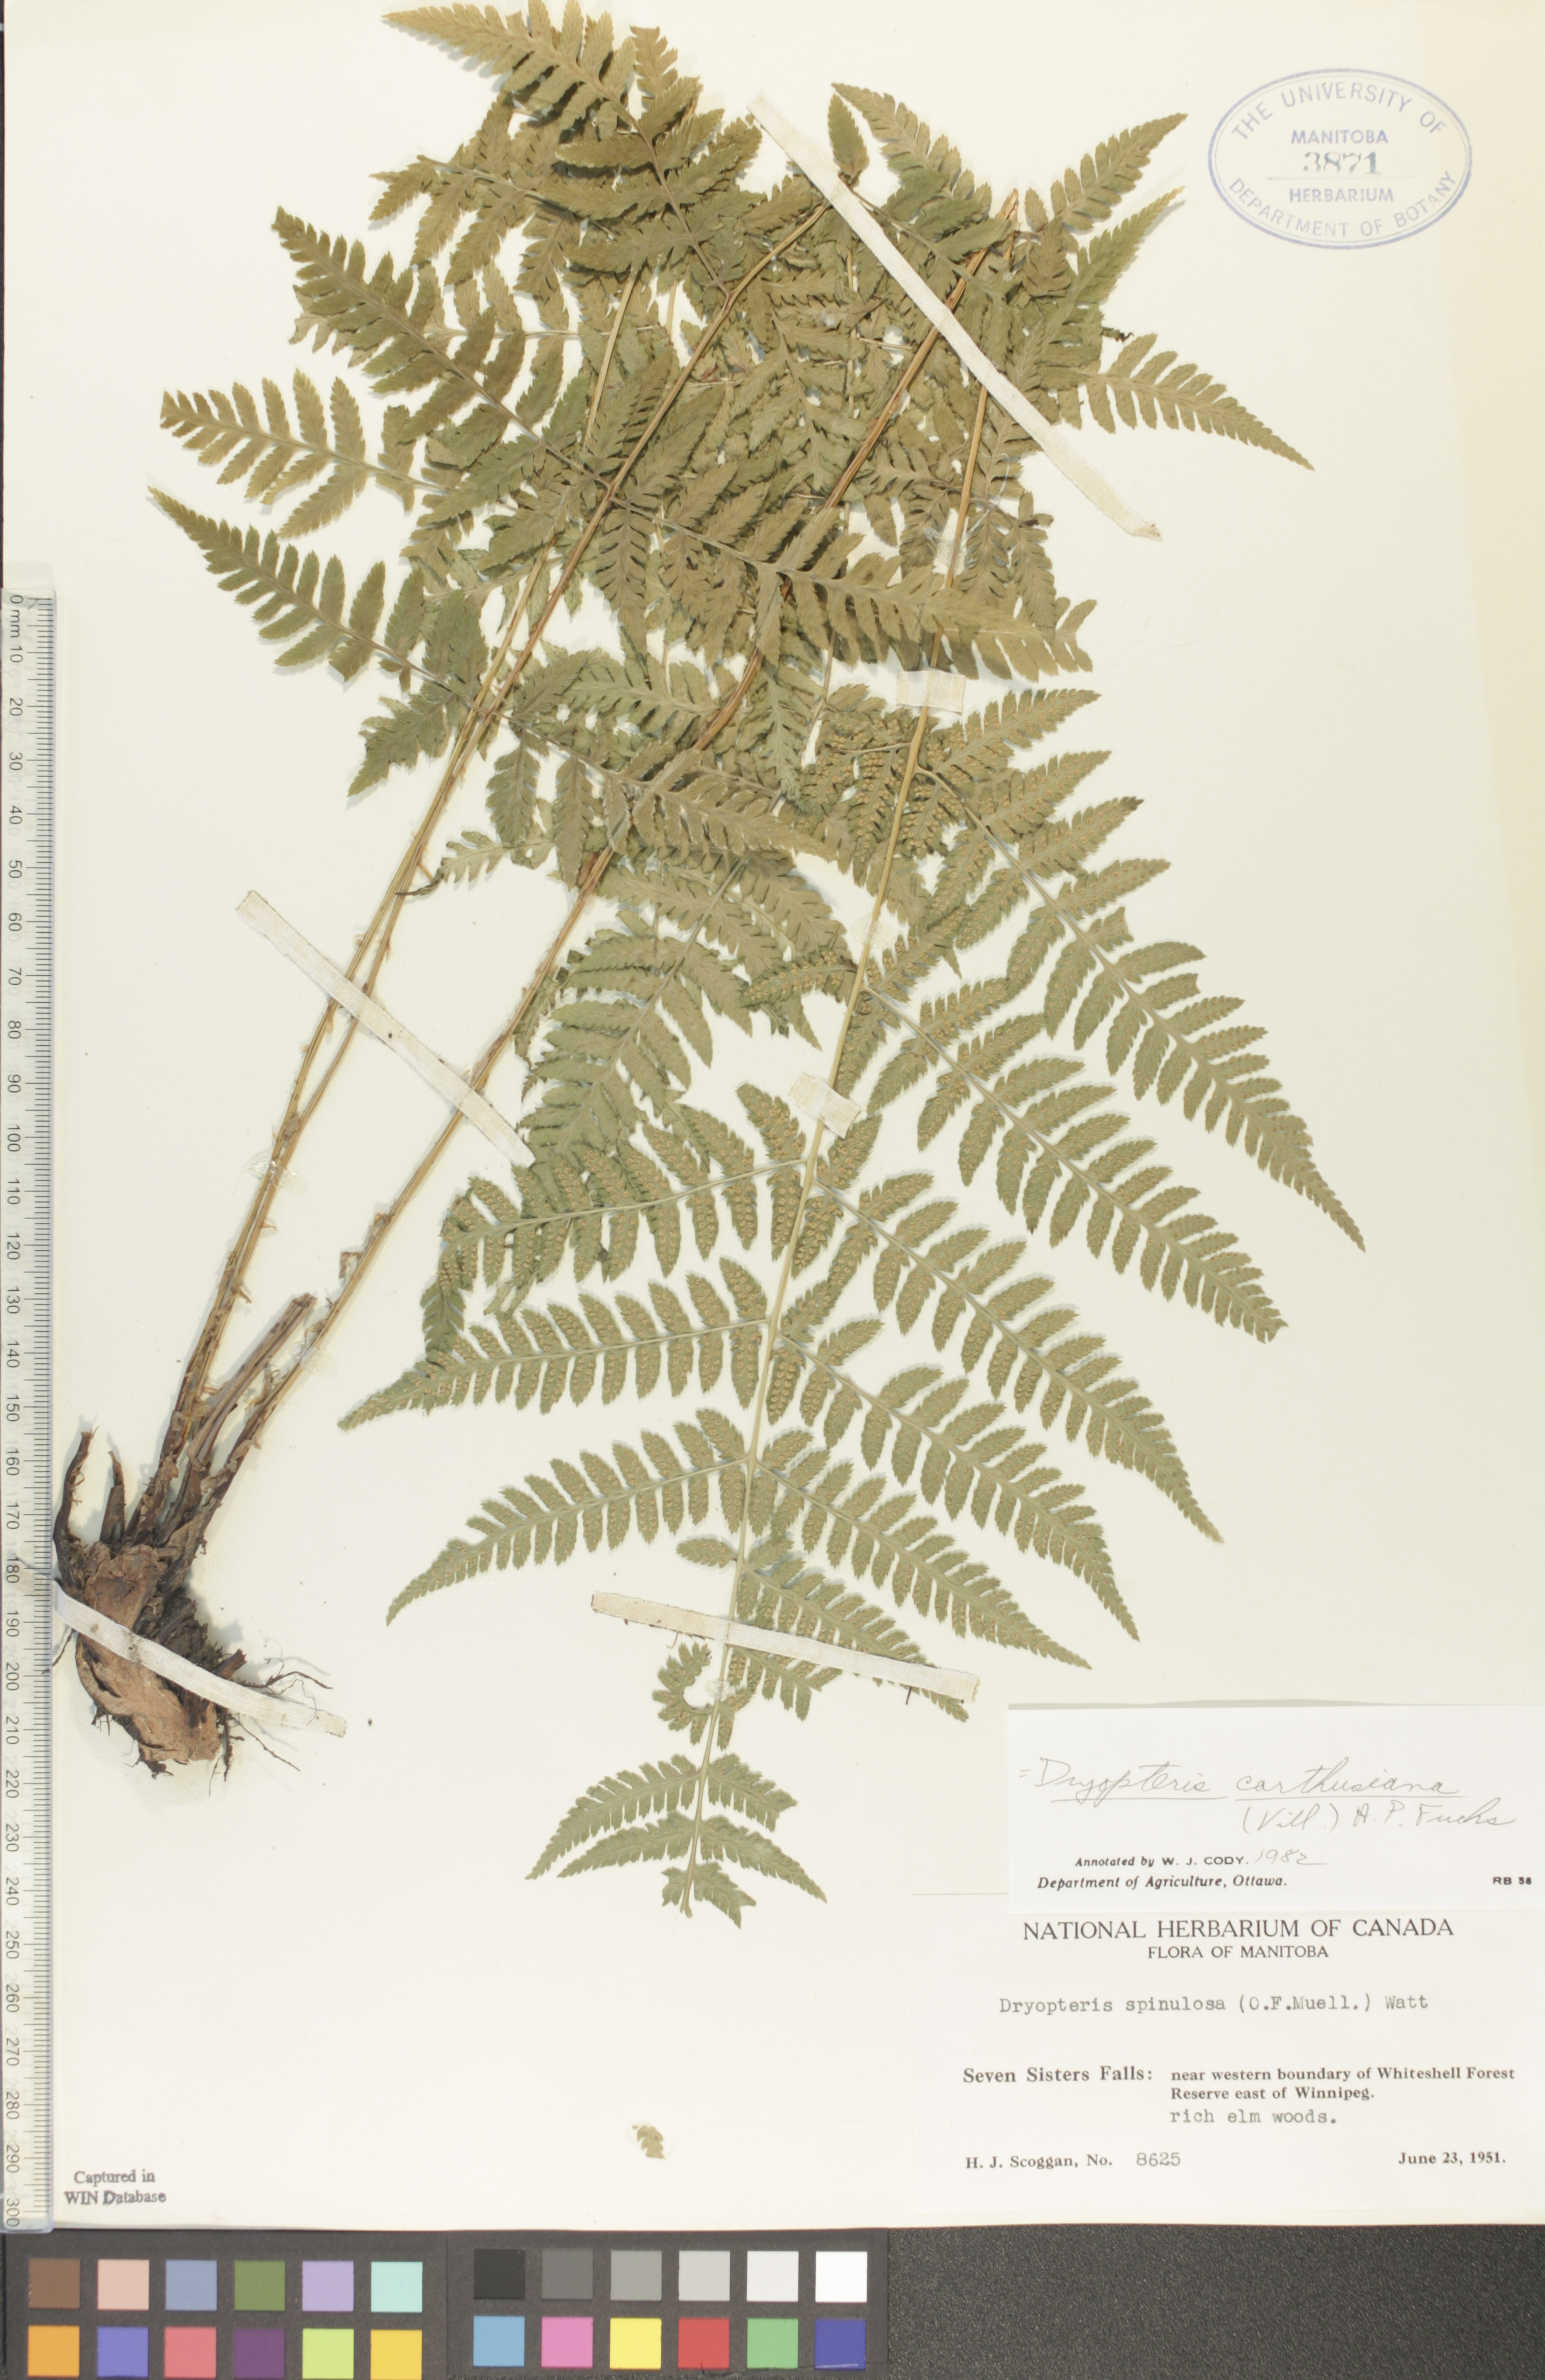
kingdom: Plantae
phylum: Tracheophyta
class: Polypodiopsida
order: Polypodiales
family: Dryopteridaceae
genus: Dryopteris
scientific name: Dryopteris carthusiana
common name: Narrow buckler-fern
